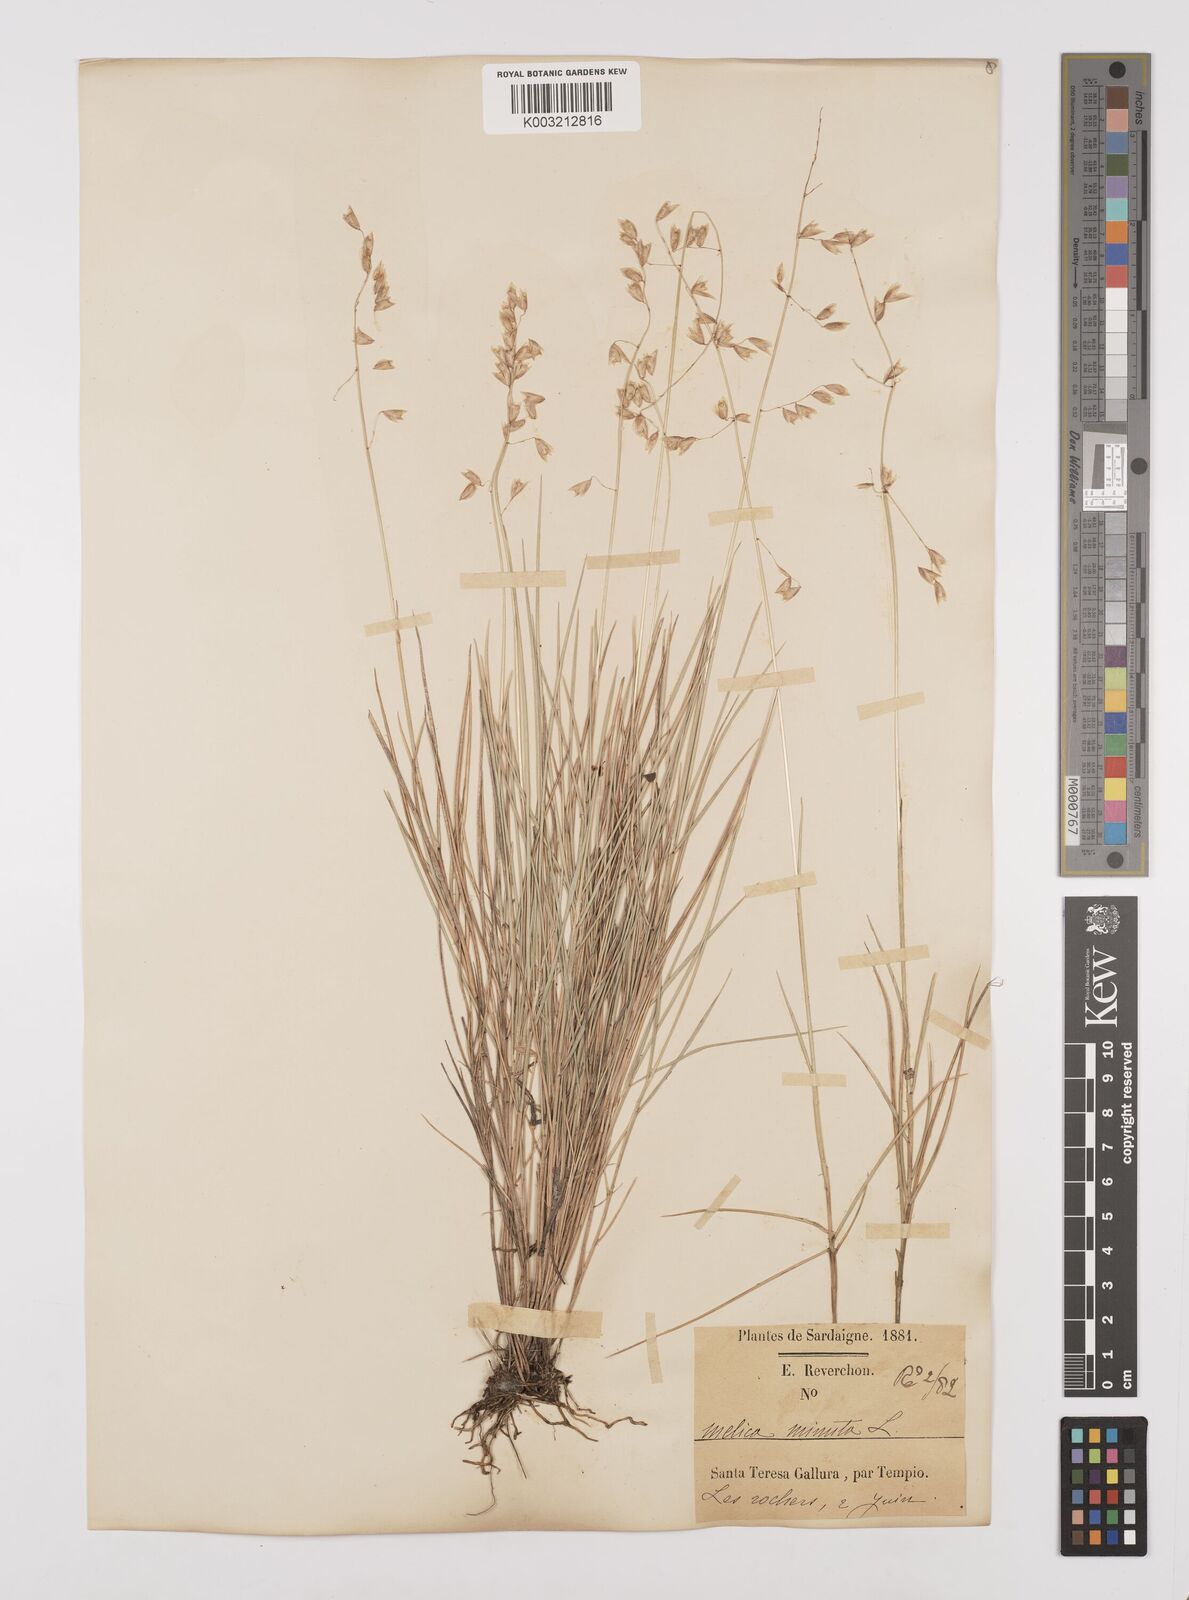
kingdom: Plantae
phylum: Tracheophyta
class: Liliopsida
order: Poales
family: Poaceae
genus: Melica
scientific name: Melica minuta
